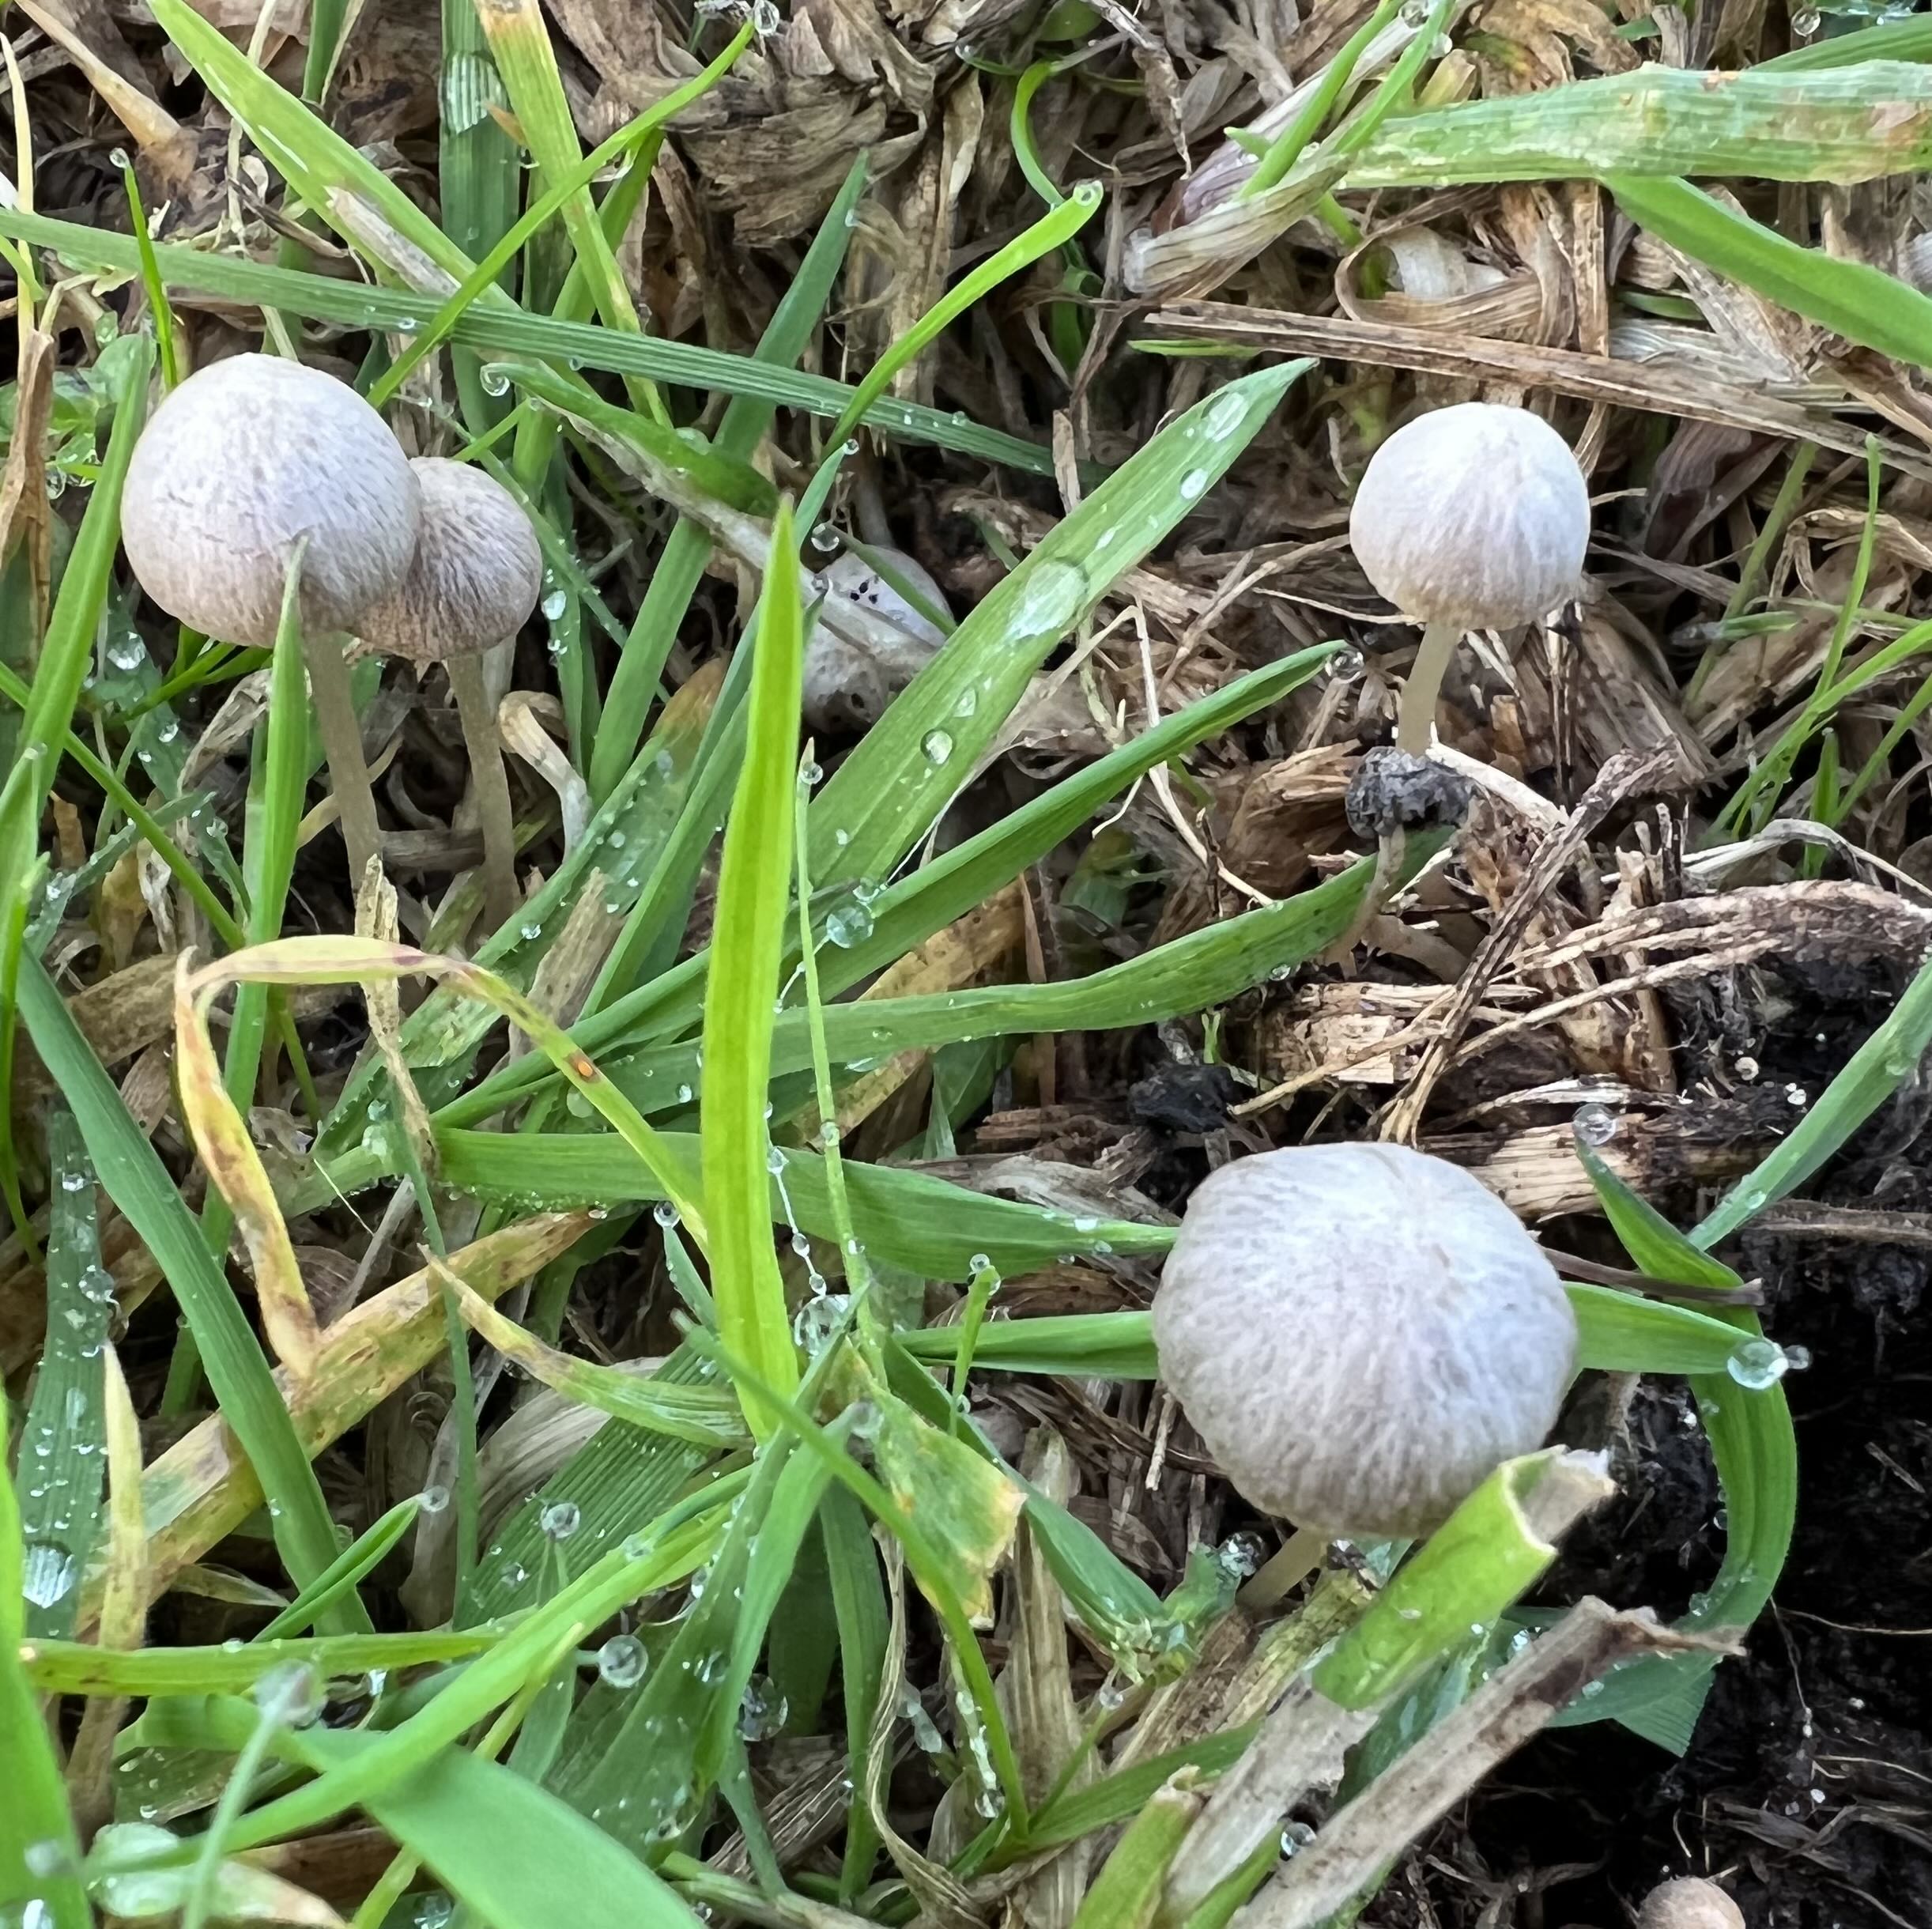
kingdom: Fungi
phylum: Basidiomycota
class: Agaricomycetes
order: Agaricales
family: Psathyrellaceae
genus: Psathyrella
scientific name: Psathyrella
